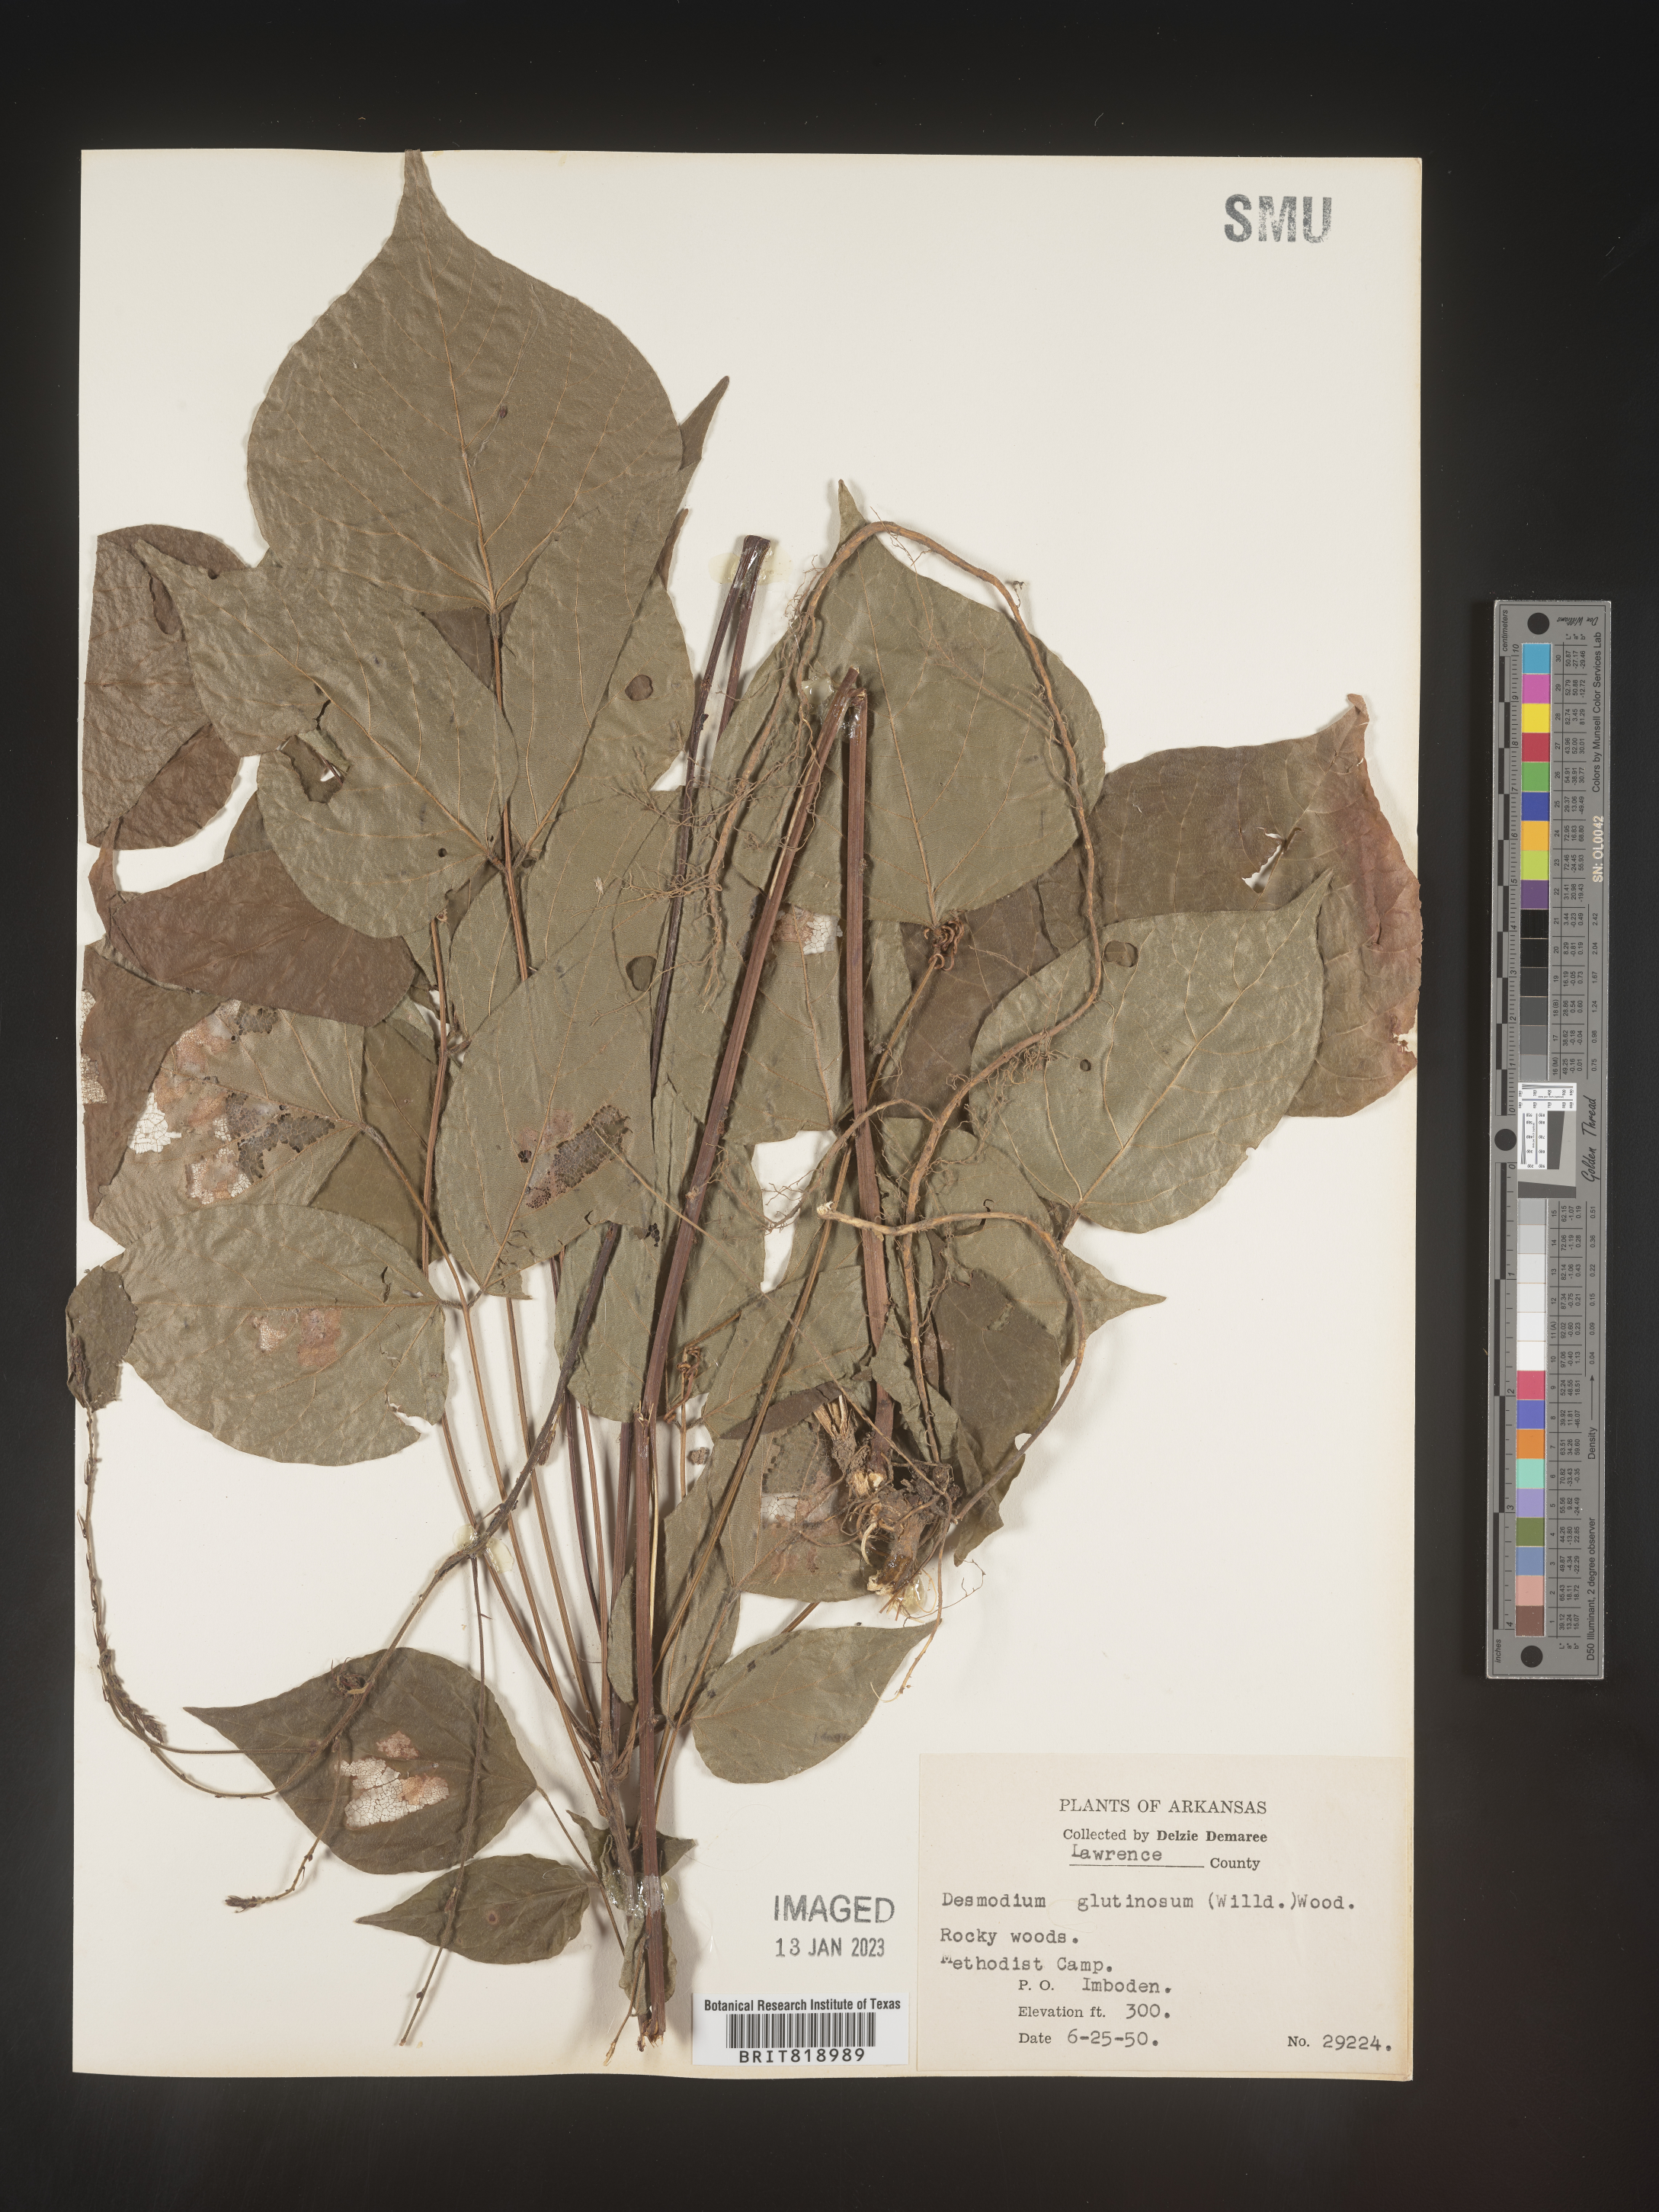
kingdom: Plantae
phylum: Tracheophyta
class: Magnoliopsida
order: Fabales
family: Fabaceae
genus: Hylodesmum
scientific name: Hylodesmum glutinosum
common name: Clustered-leaved tick-trefoil
